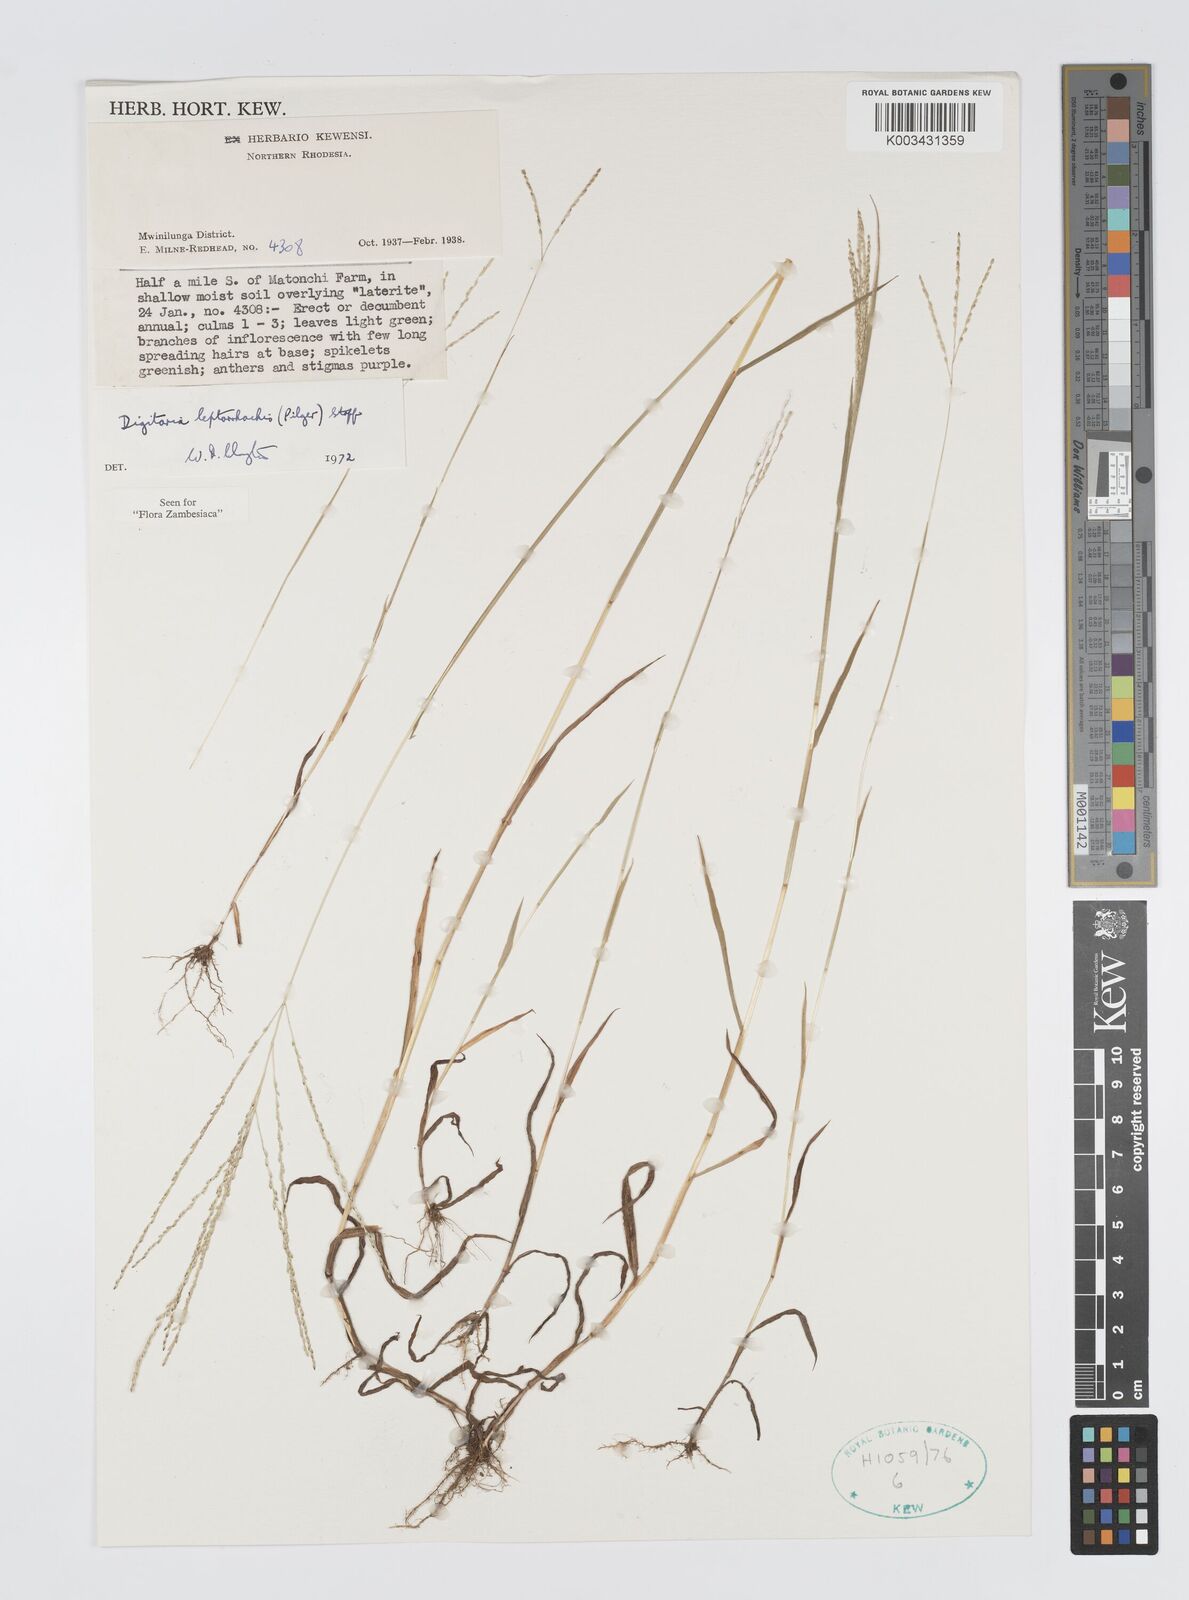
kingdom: Plantae
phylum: Tracheophyta
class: Liliopsida
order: Poales
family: Poaceae
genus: Digitaria
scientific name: Digitaria leptorhachis
